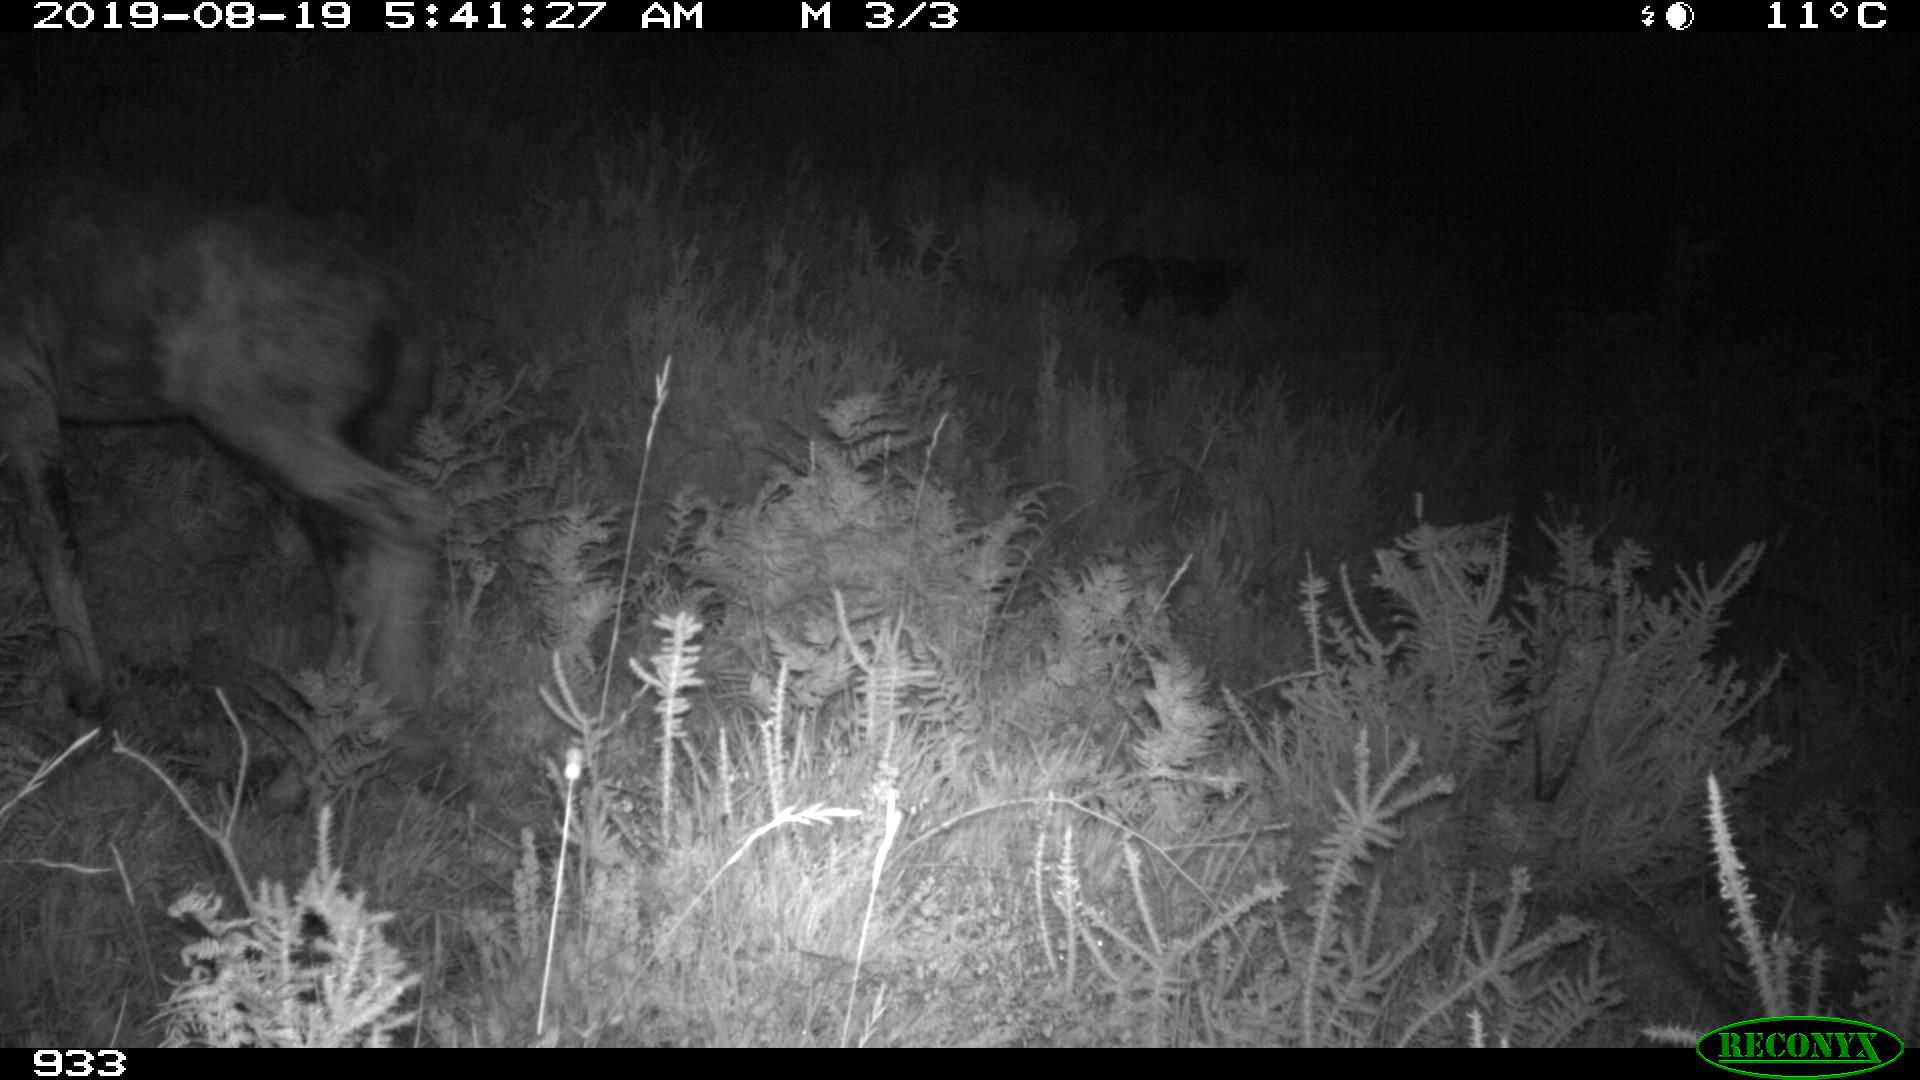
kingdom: Animalia
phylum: Chordata
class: Mammalia
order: Perissodactyla
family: Equidae
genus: Equus
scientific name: Equus caballus
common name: Horse
